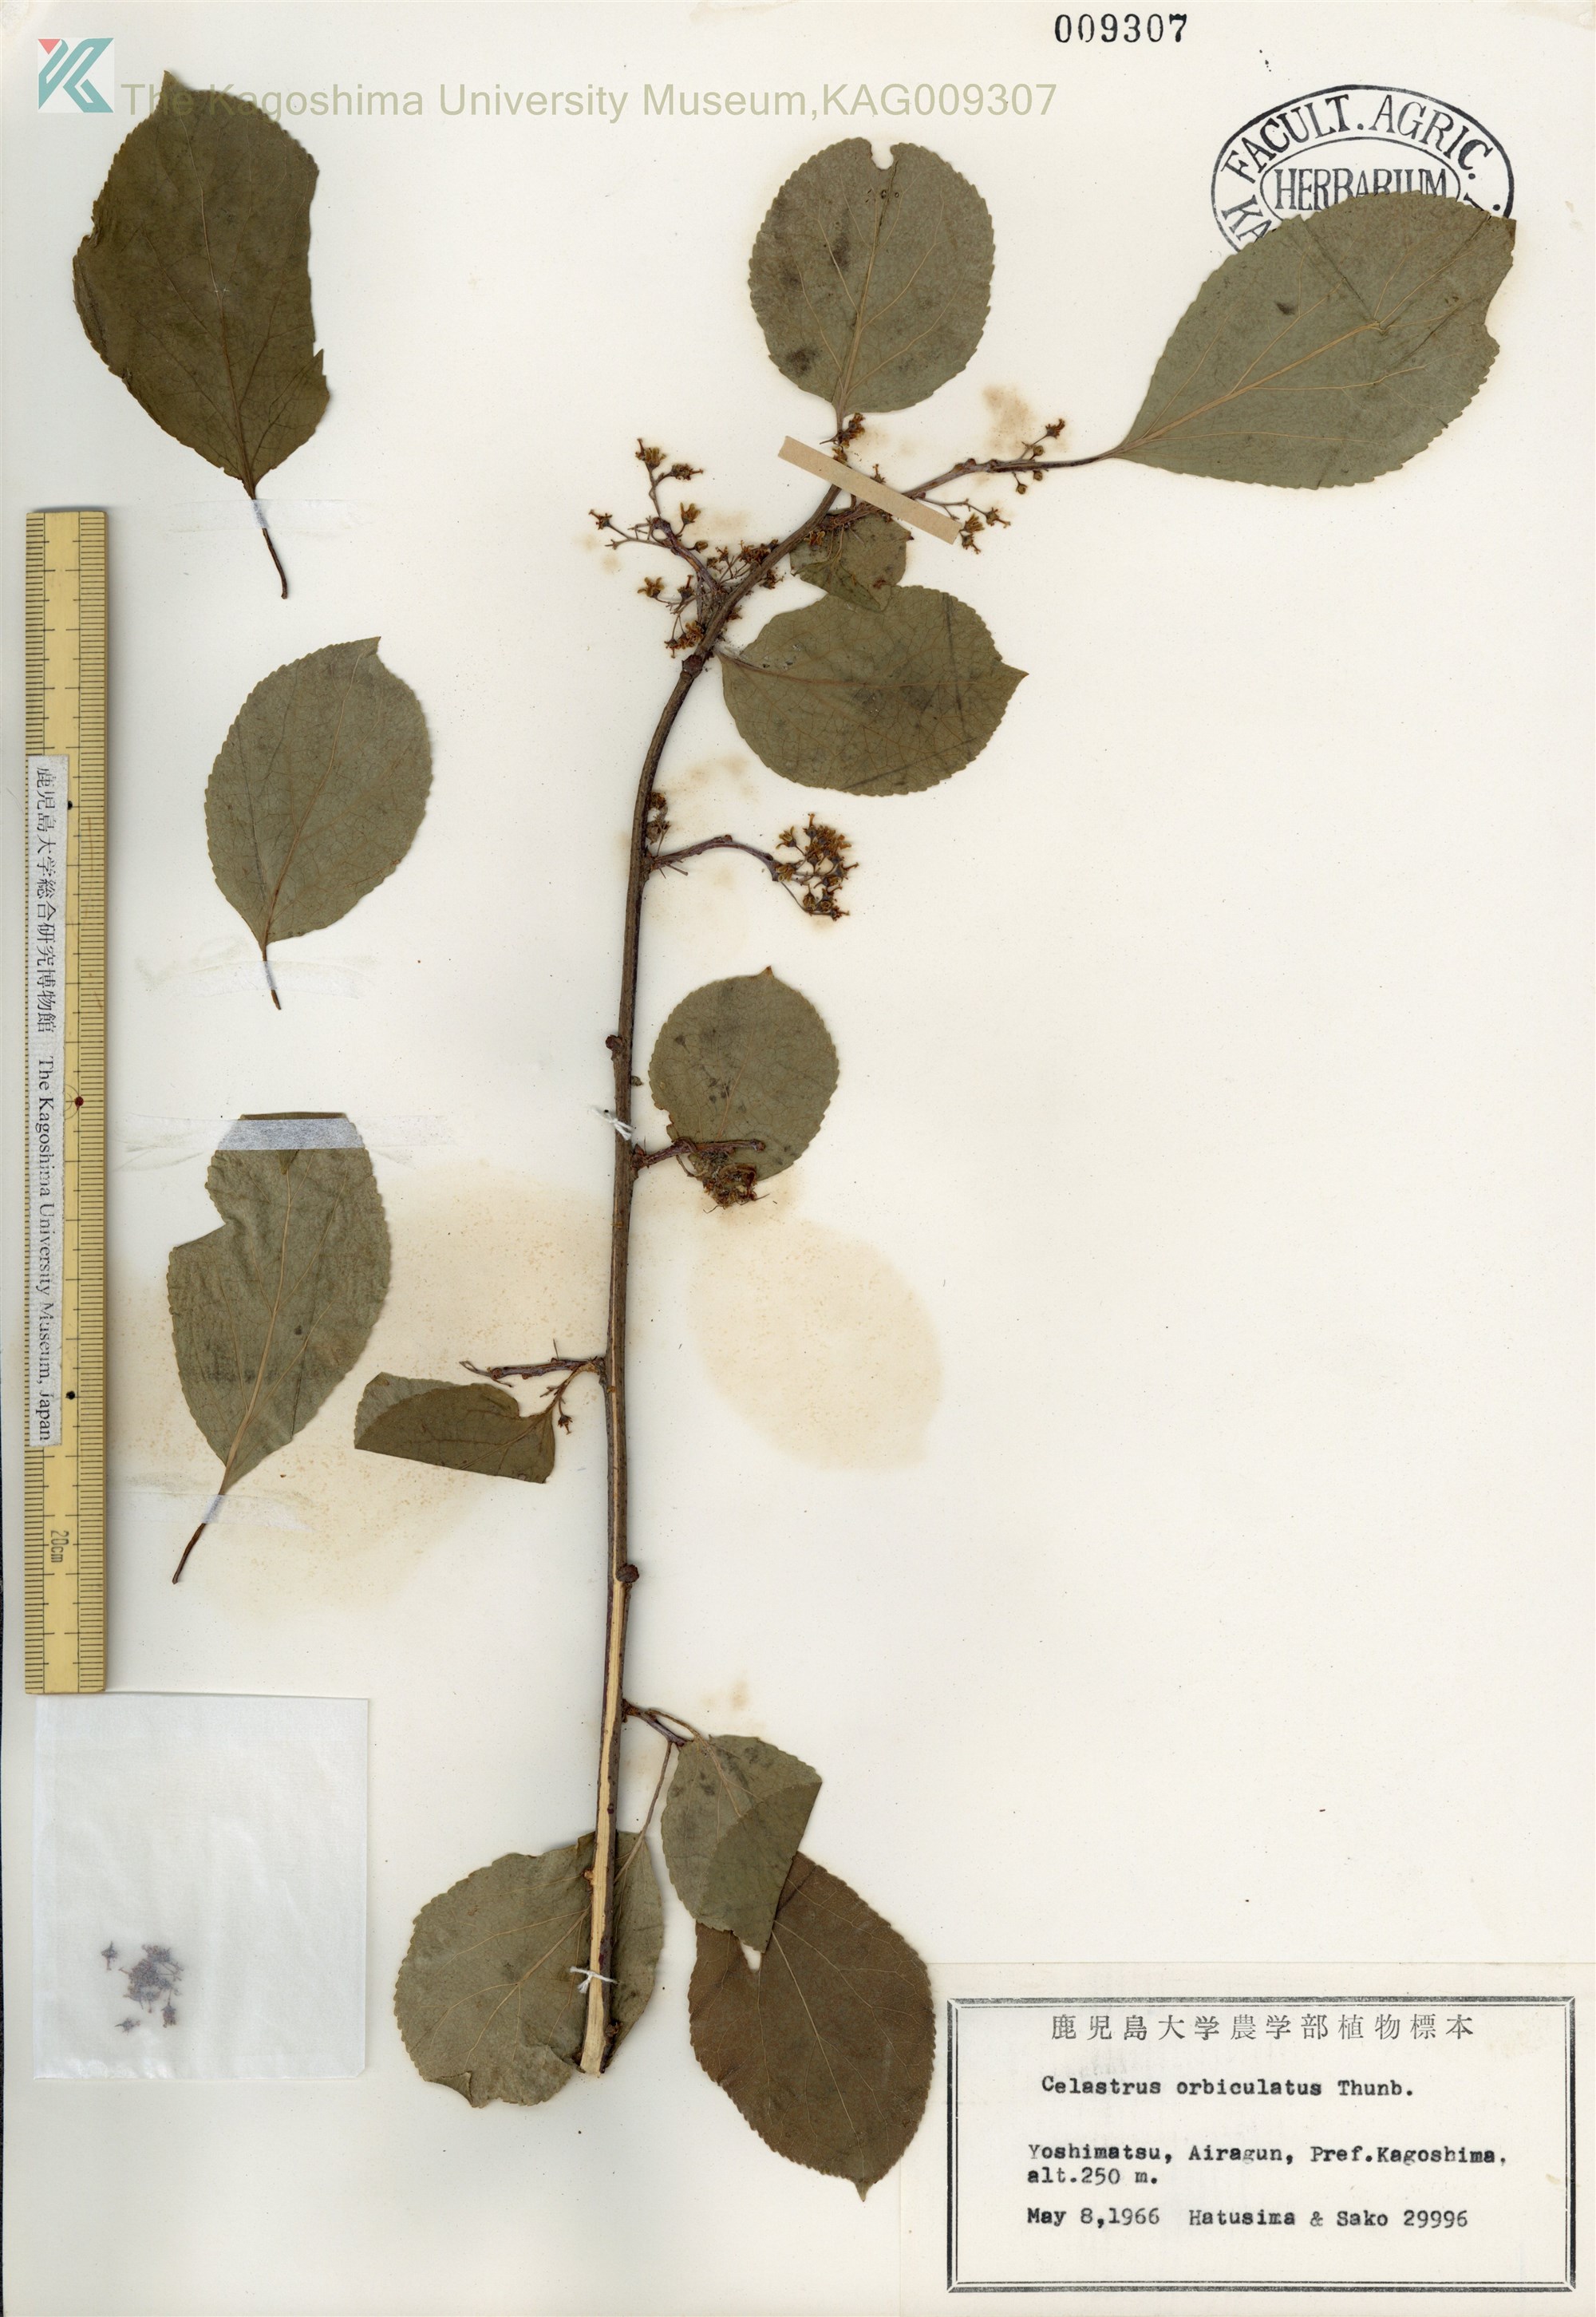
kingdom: Plantae
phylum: Tracheophyta
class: Magnoliopsida
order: Celastrales
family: Celastraceae
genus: Celastrus
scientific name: Celastrus punctatus
